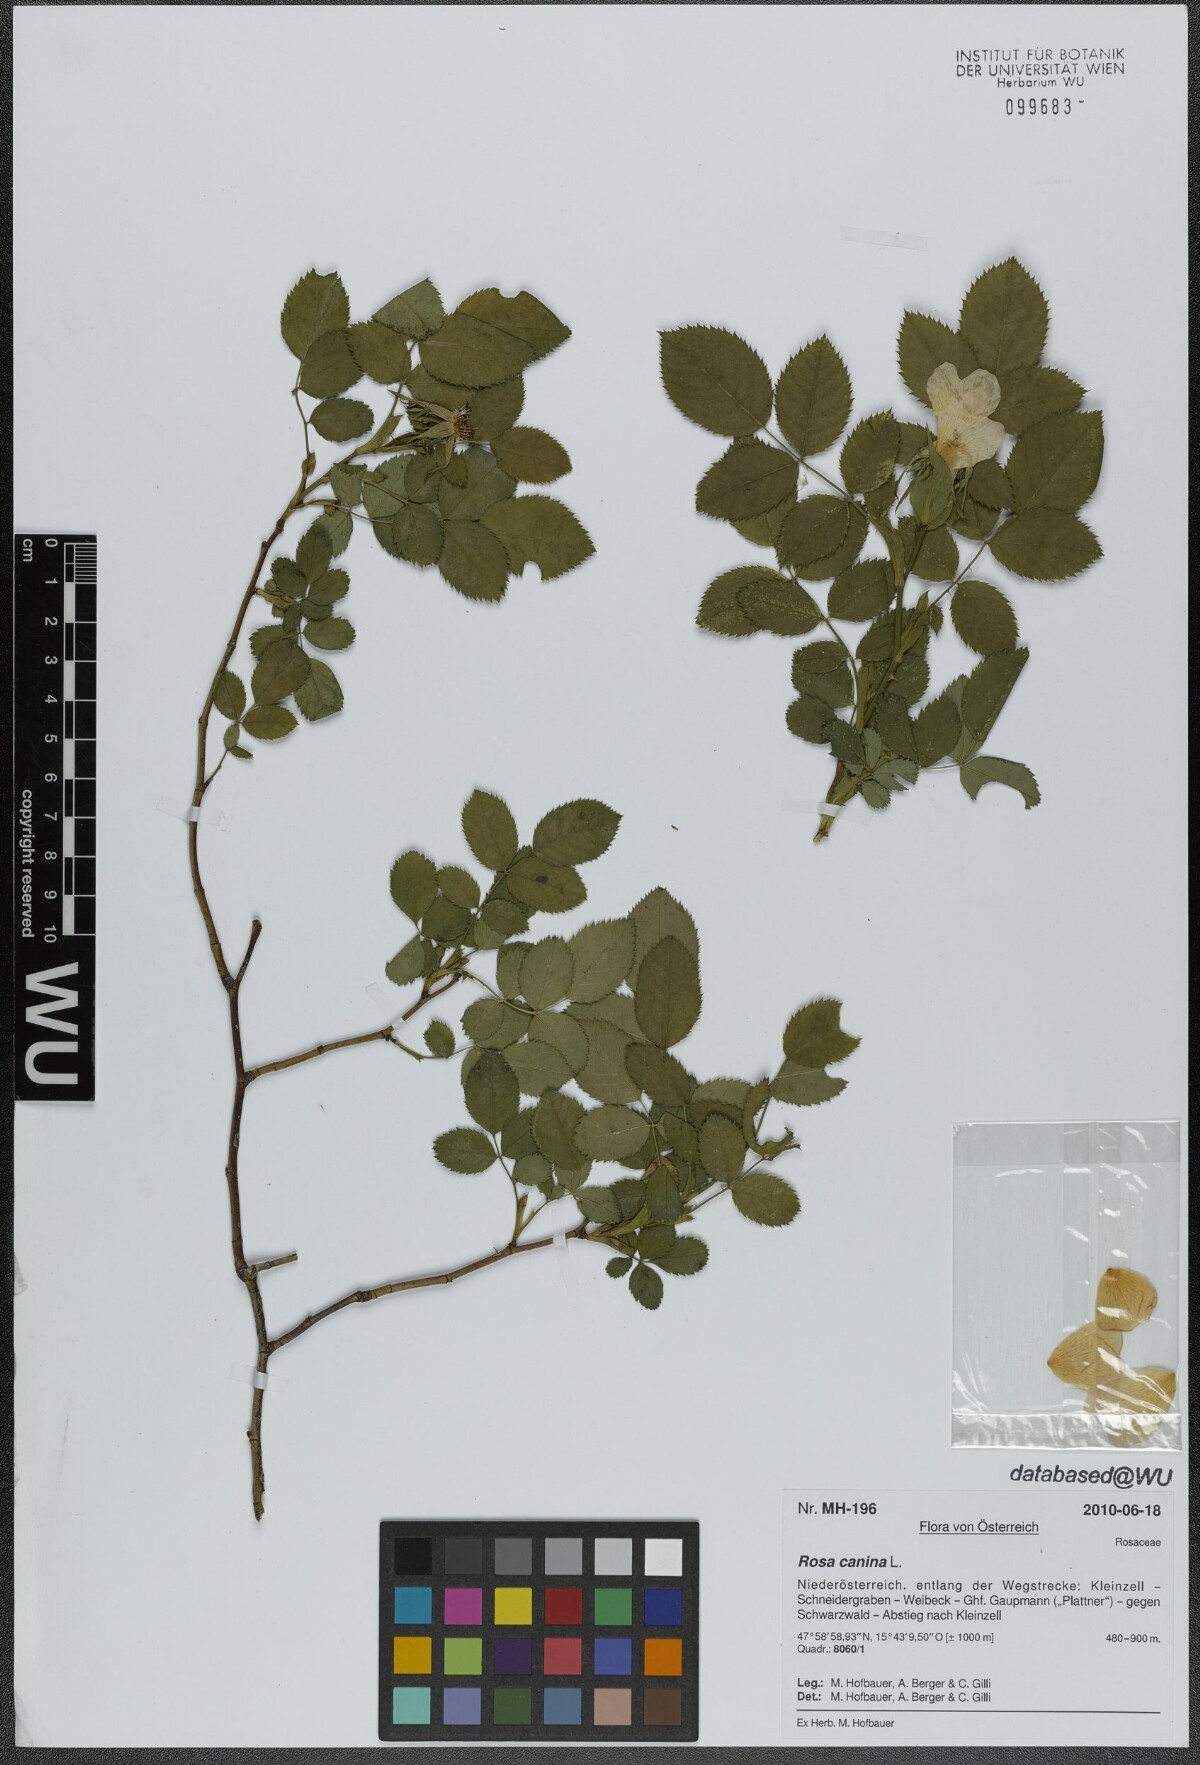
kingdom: Plantae
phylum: Tracheophyta
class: Magnoliopsida
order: Rosales
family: Rosaceae
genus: Rosa
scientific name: Rosa canina
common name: Dog rose
